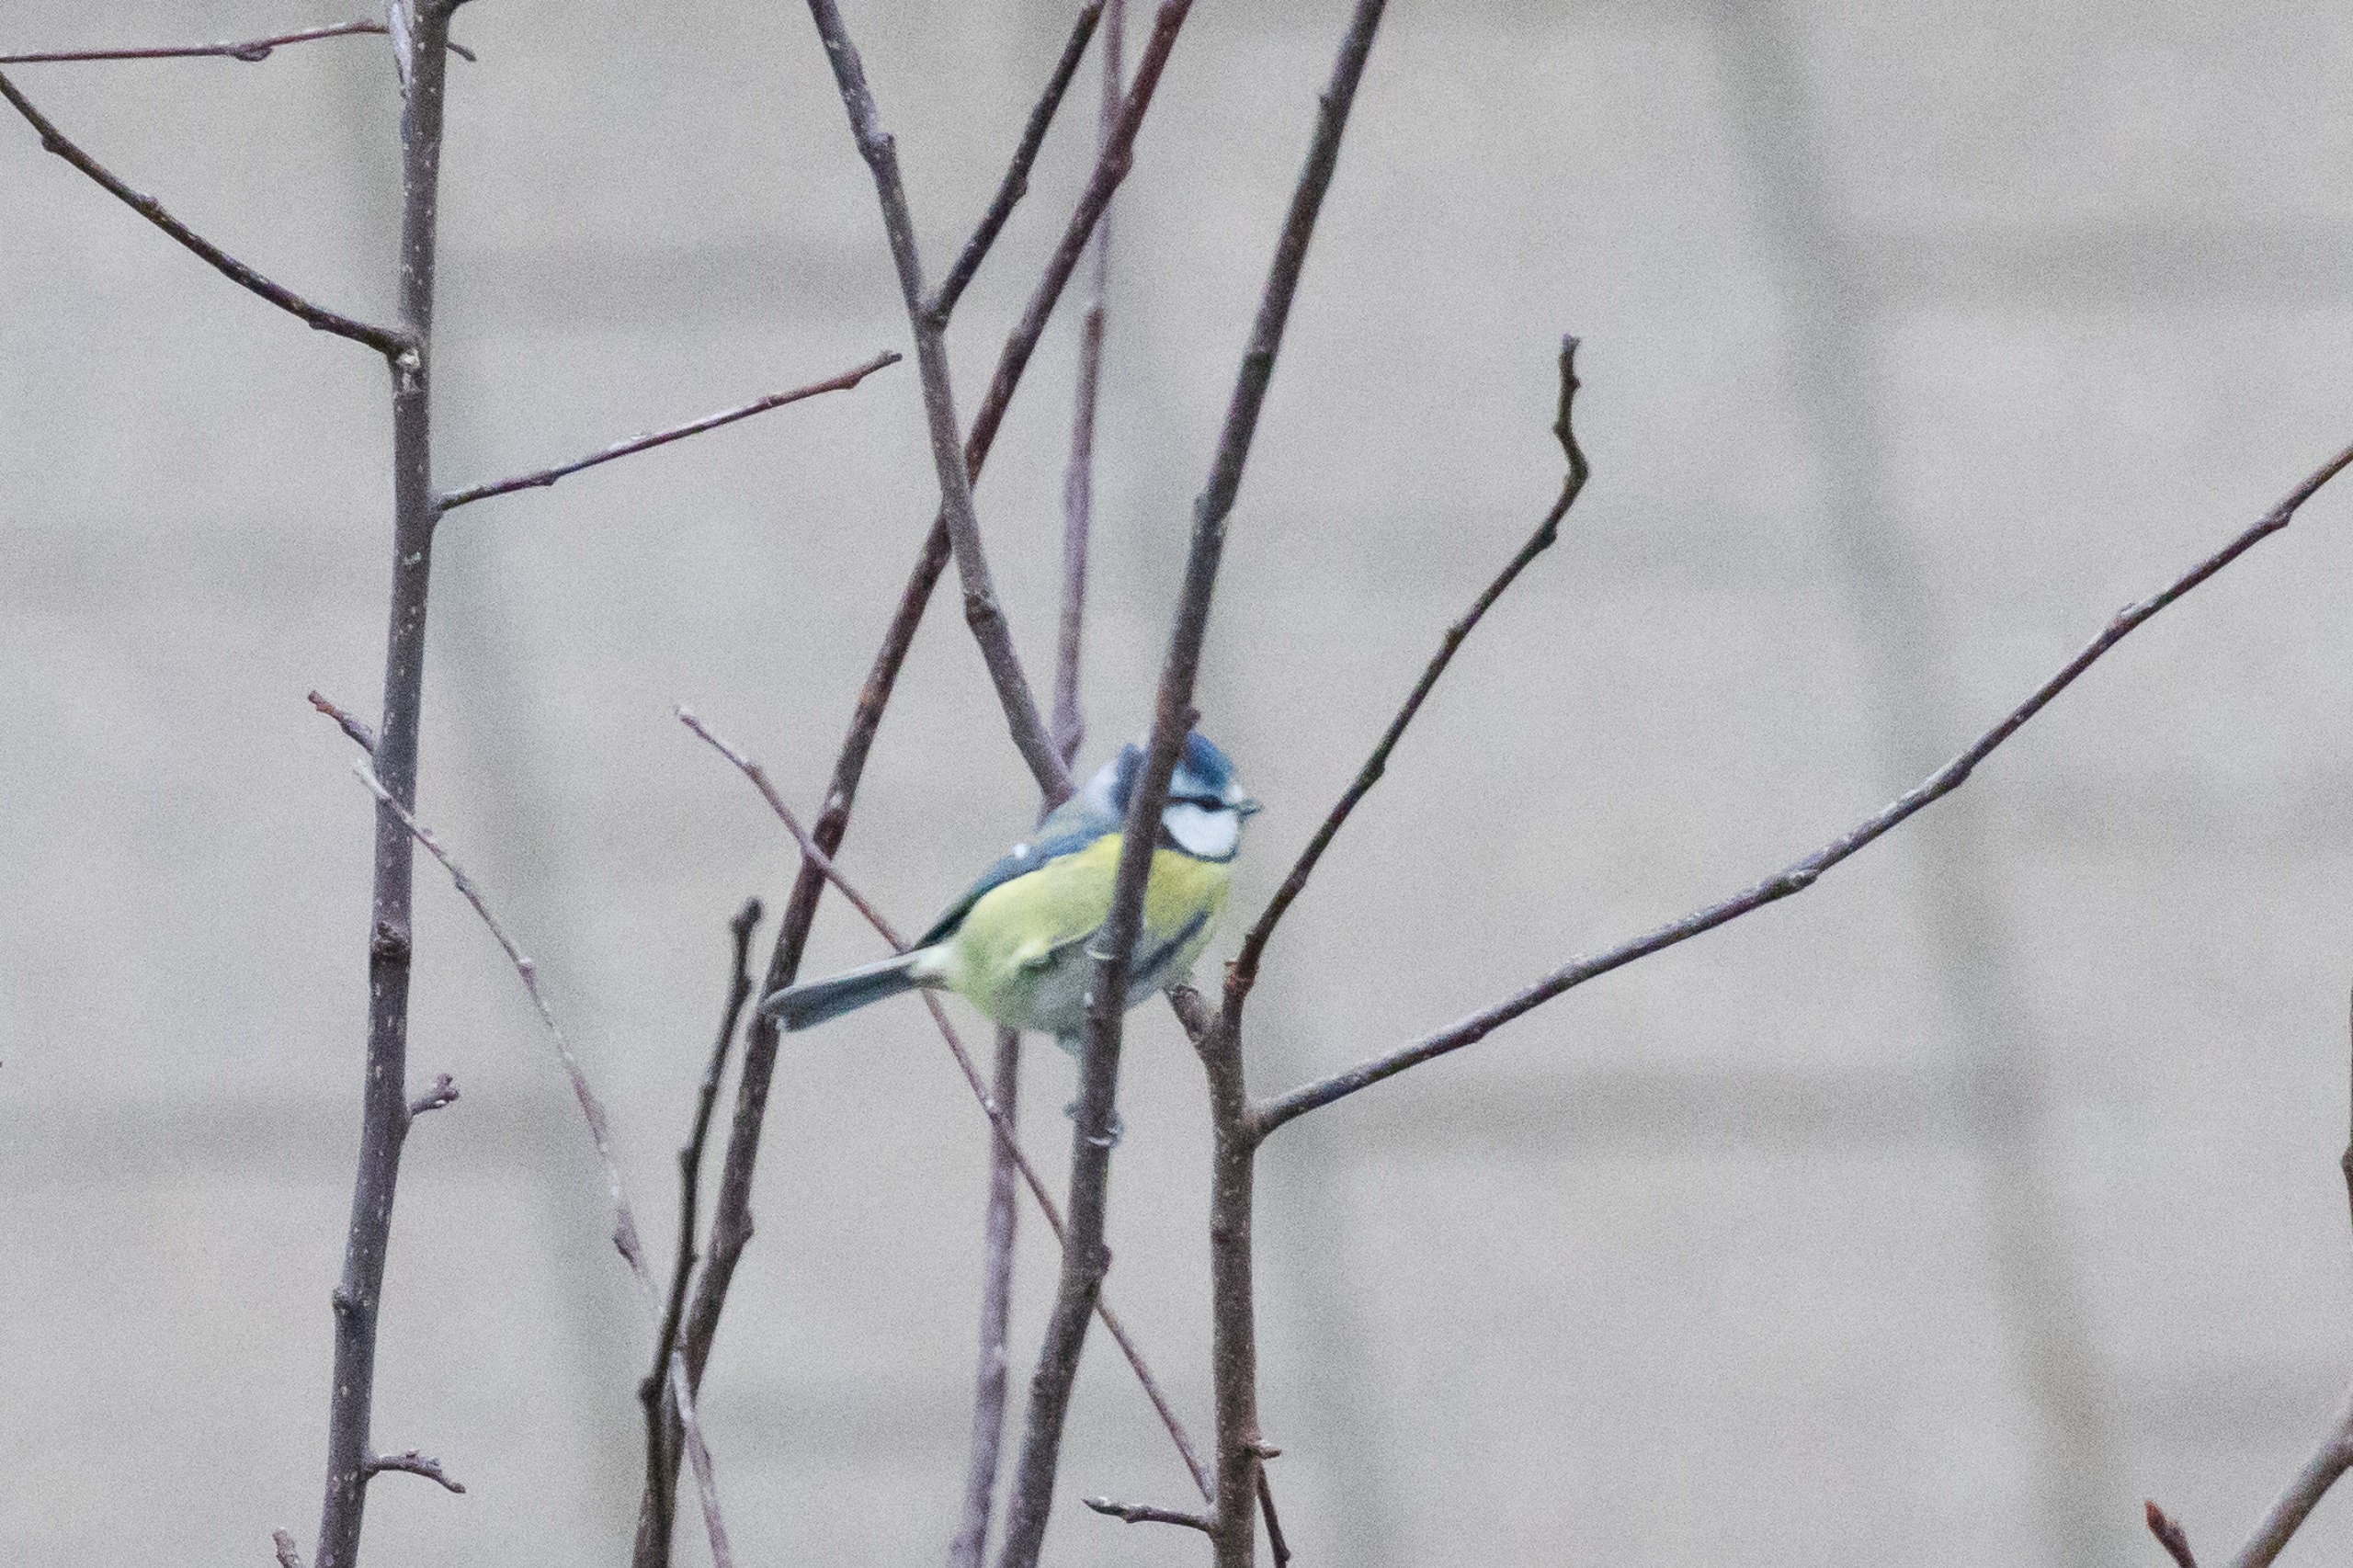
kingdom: Animalia
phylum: Chordata
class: Aves
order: Passeriformes
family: Paridae
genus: Cyanistes
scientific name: Cyanistes caeruleus
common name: Blåmejse
